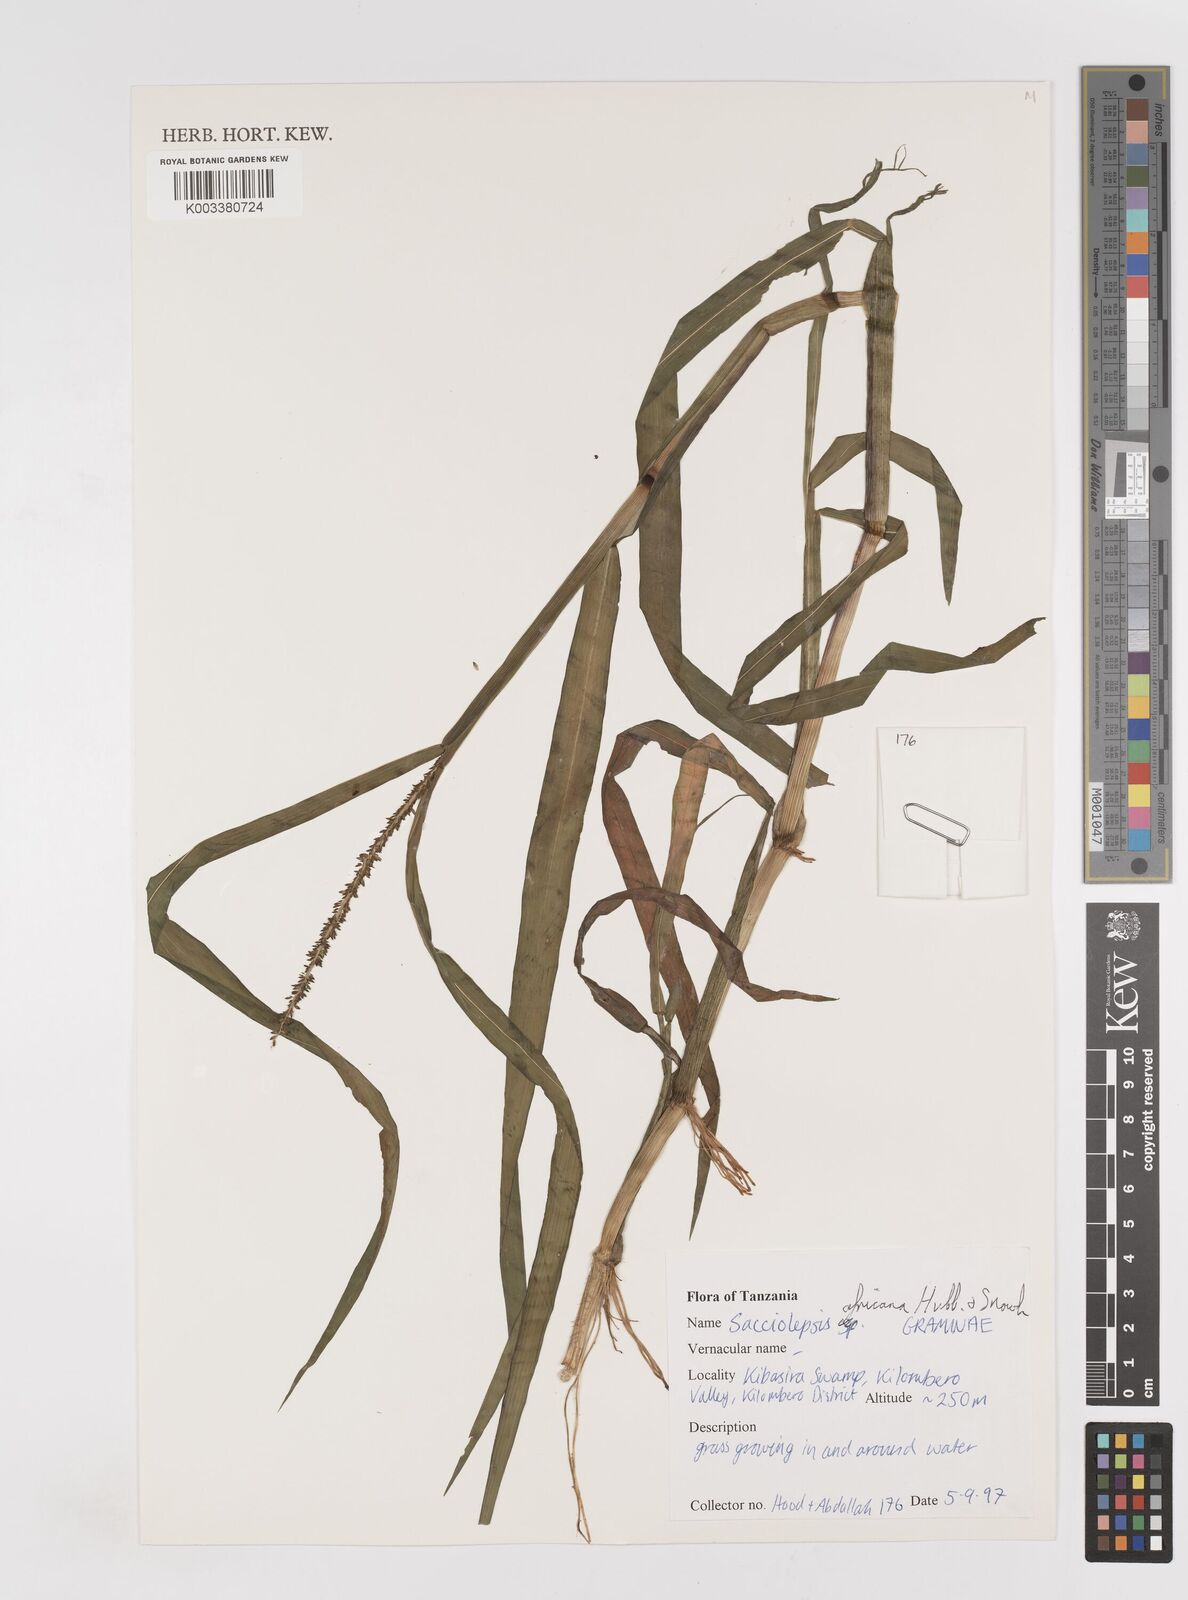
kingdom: Plantae
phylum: Tracheophyta
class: Liliopsida
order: Poales
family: Poaceae
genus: Sacciolepis
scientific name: Sacciolepis africana
